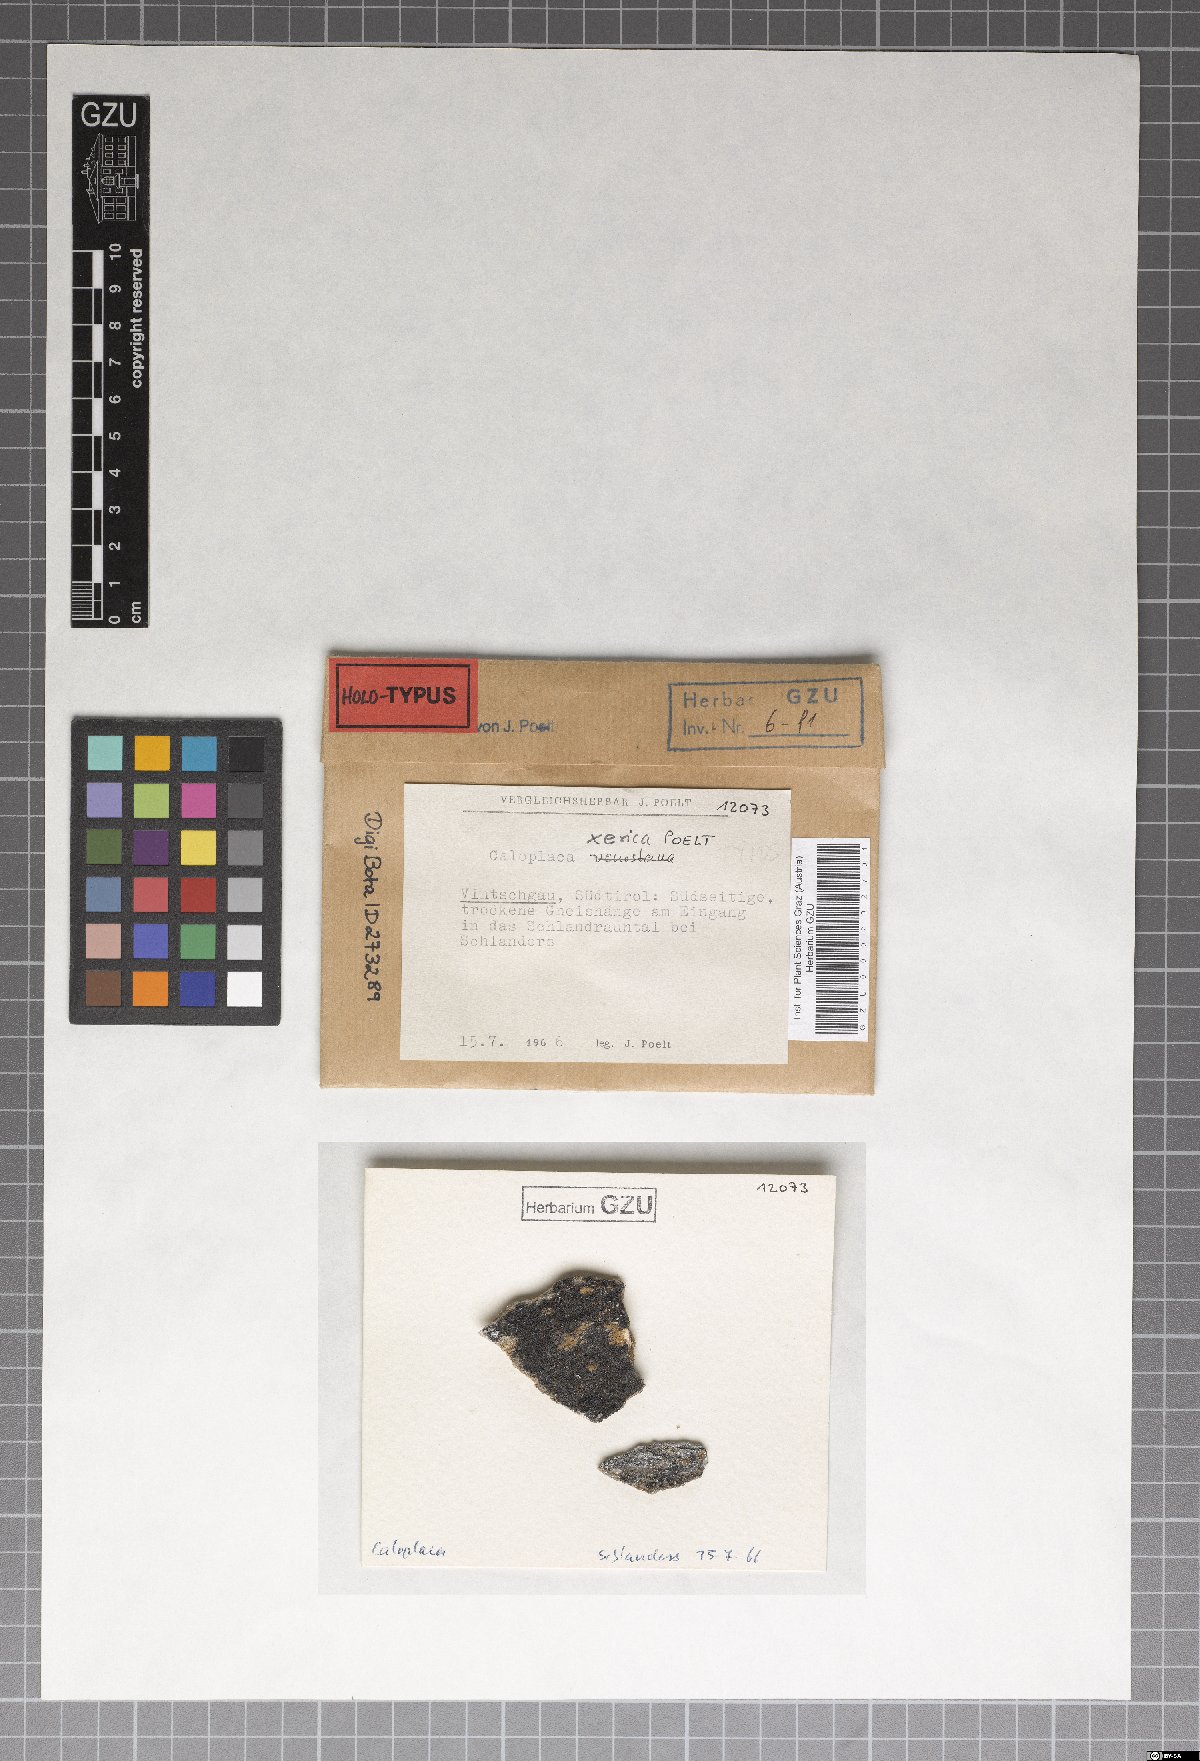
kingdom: Fungi
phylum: Ascomycota
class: Lecanoromycetes
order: Teloschistales
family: Teloschistaceae
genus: Kuettlingeria
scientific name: Kuettlingeria xerica
